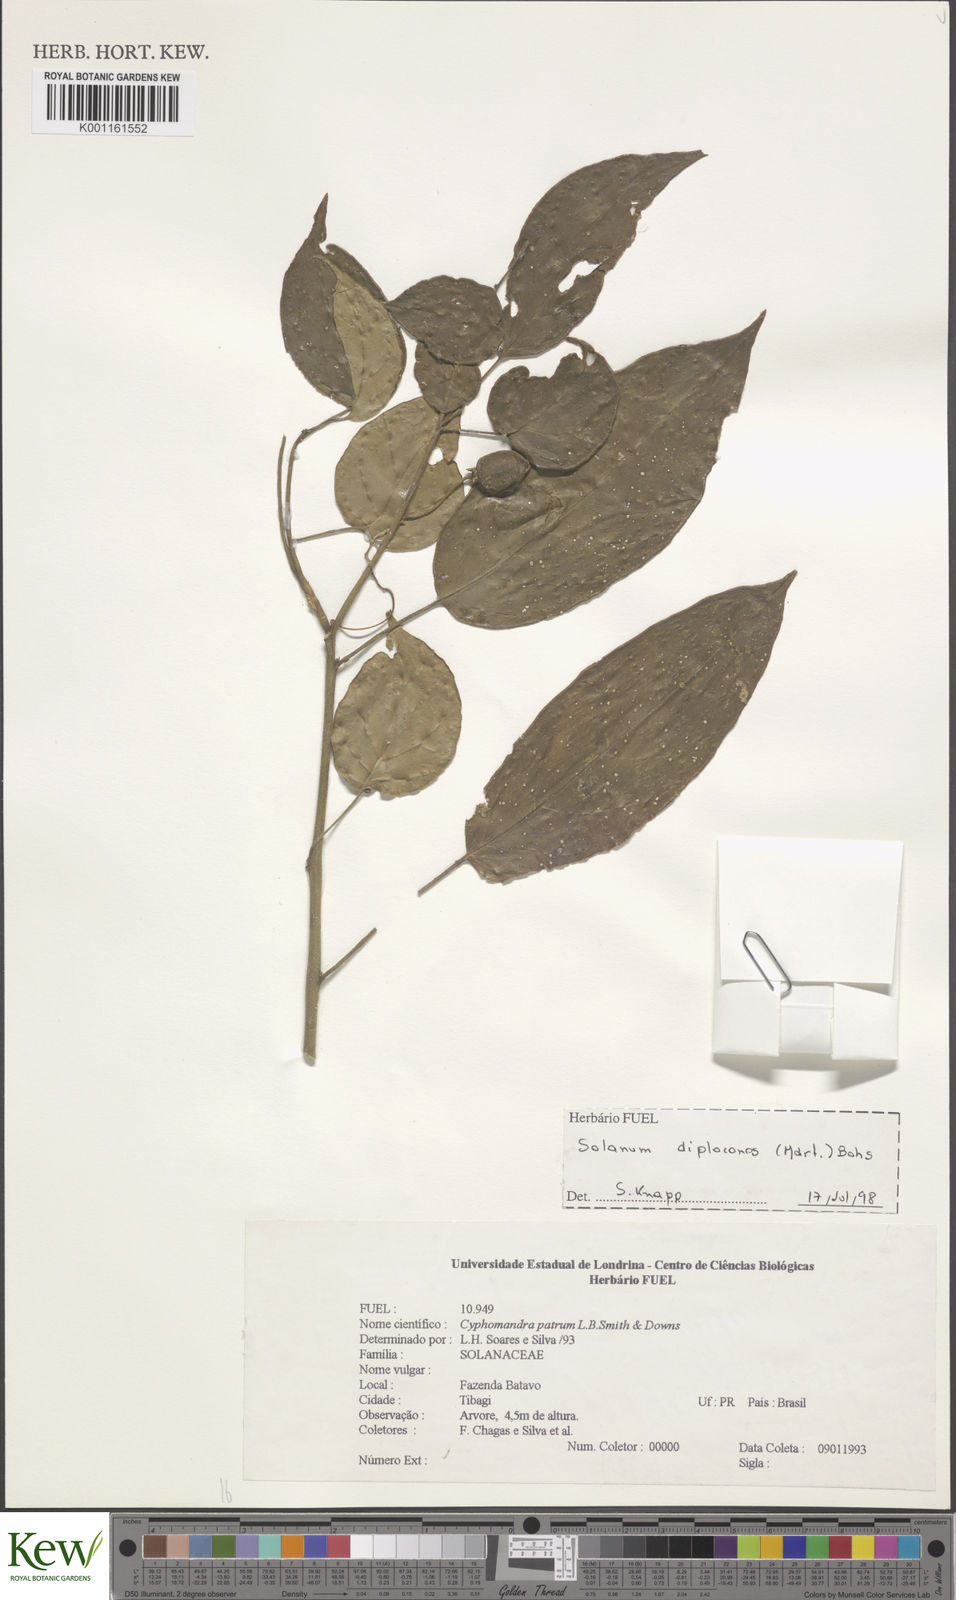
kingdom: Plantae
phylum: Tracheophyta
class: Magnoliopsida
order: Solanales
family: Solanaceae
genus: Solanum
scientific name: Solanum diploconos
